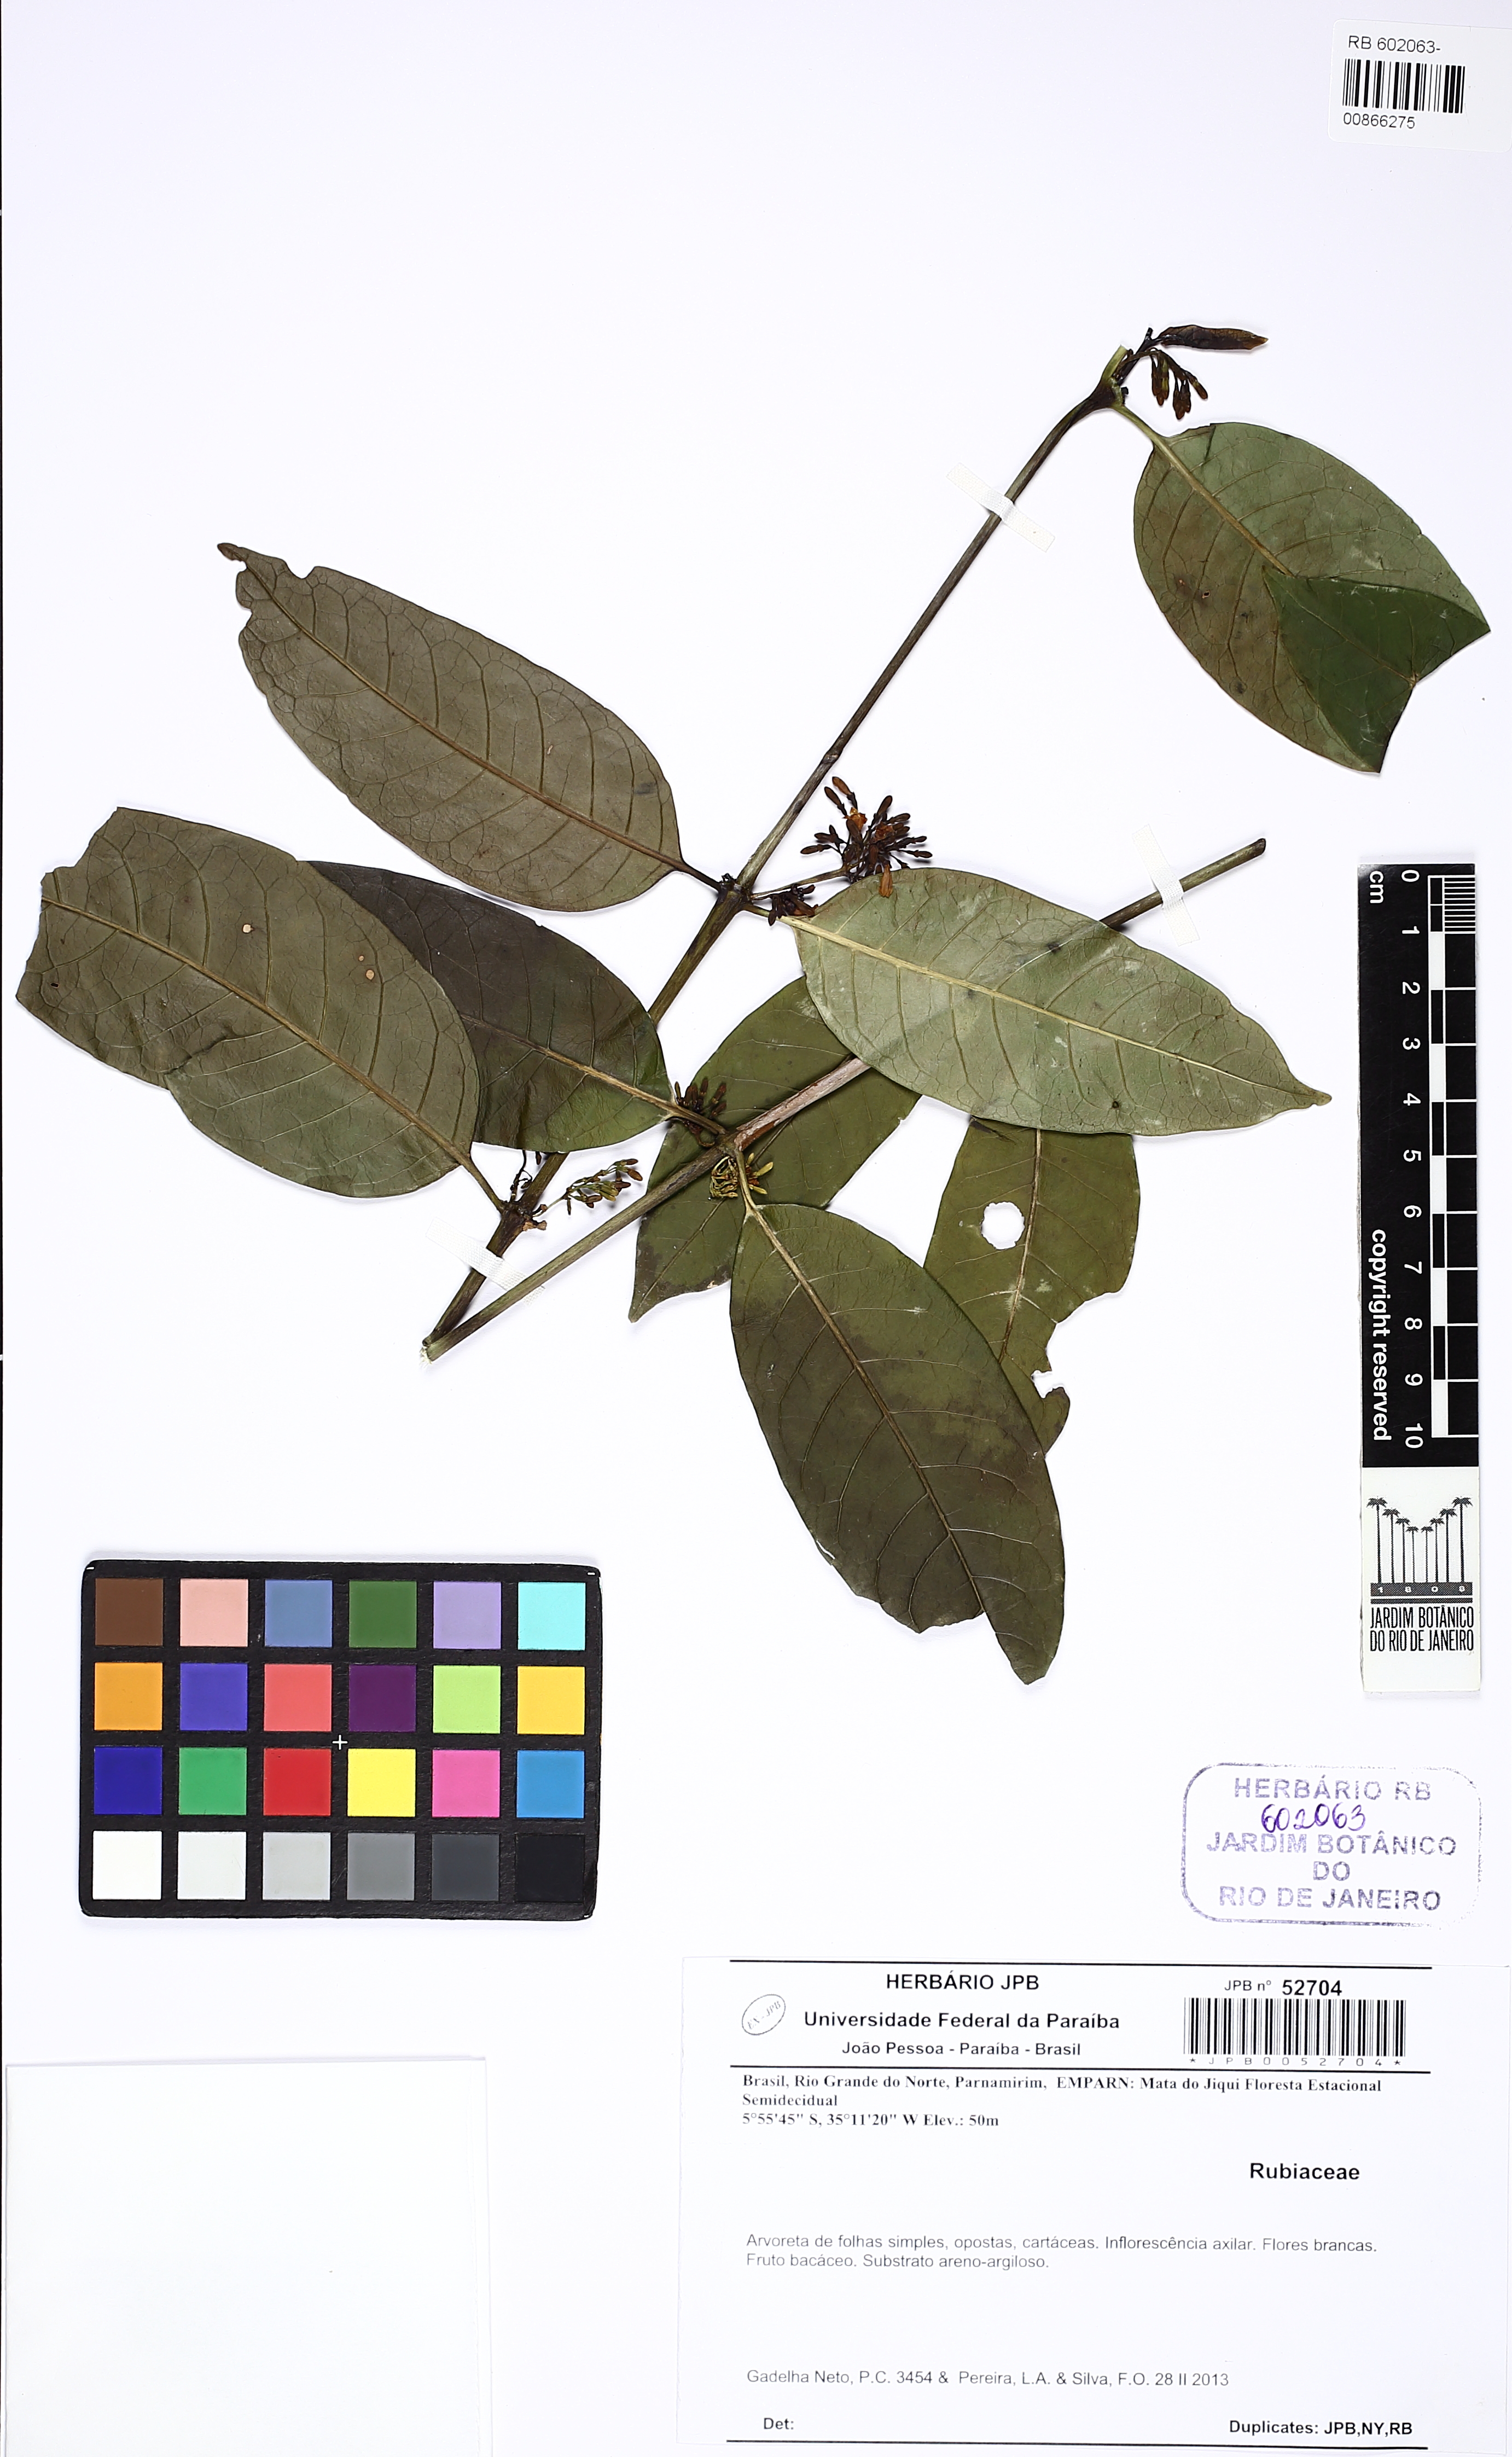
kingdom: Plantae
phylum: Tracheophyta
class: Magnoliopsida
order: Gentianales
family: Rubiaceae
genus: Chiococca
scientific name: Chiococca nitida
